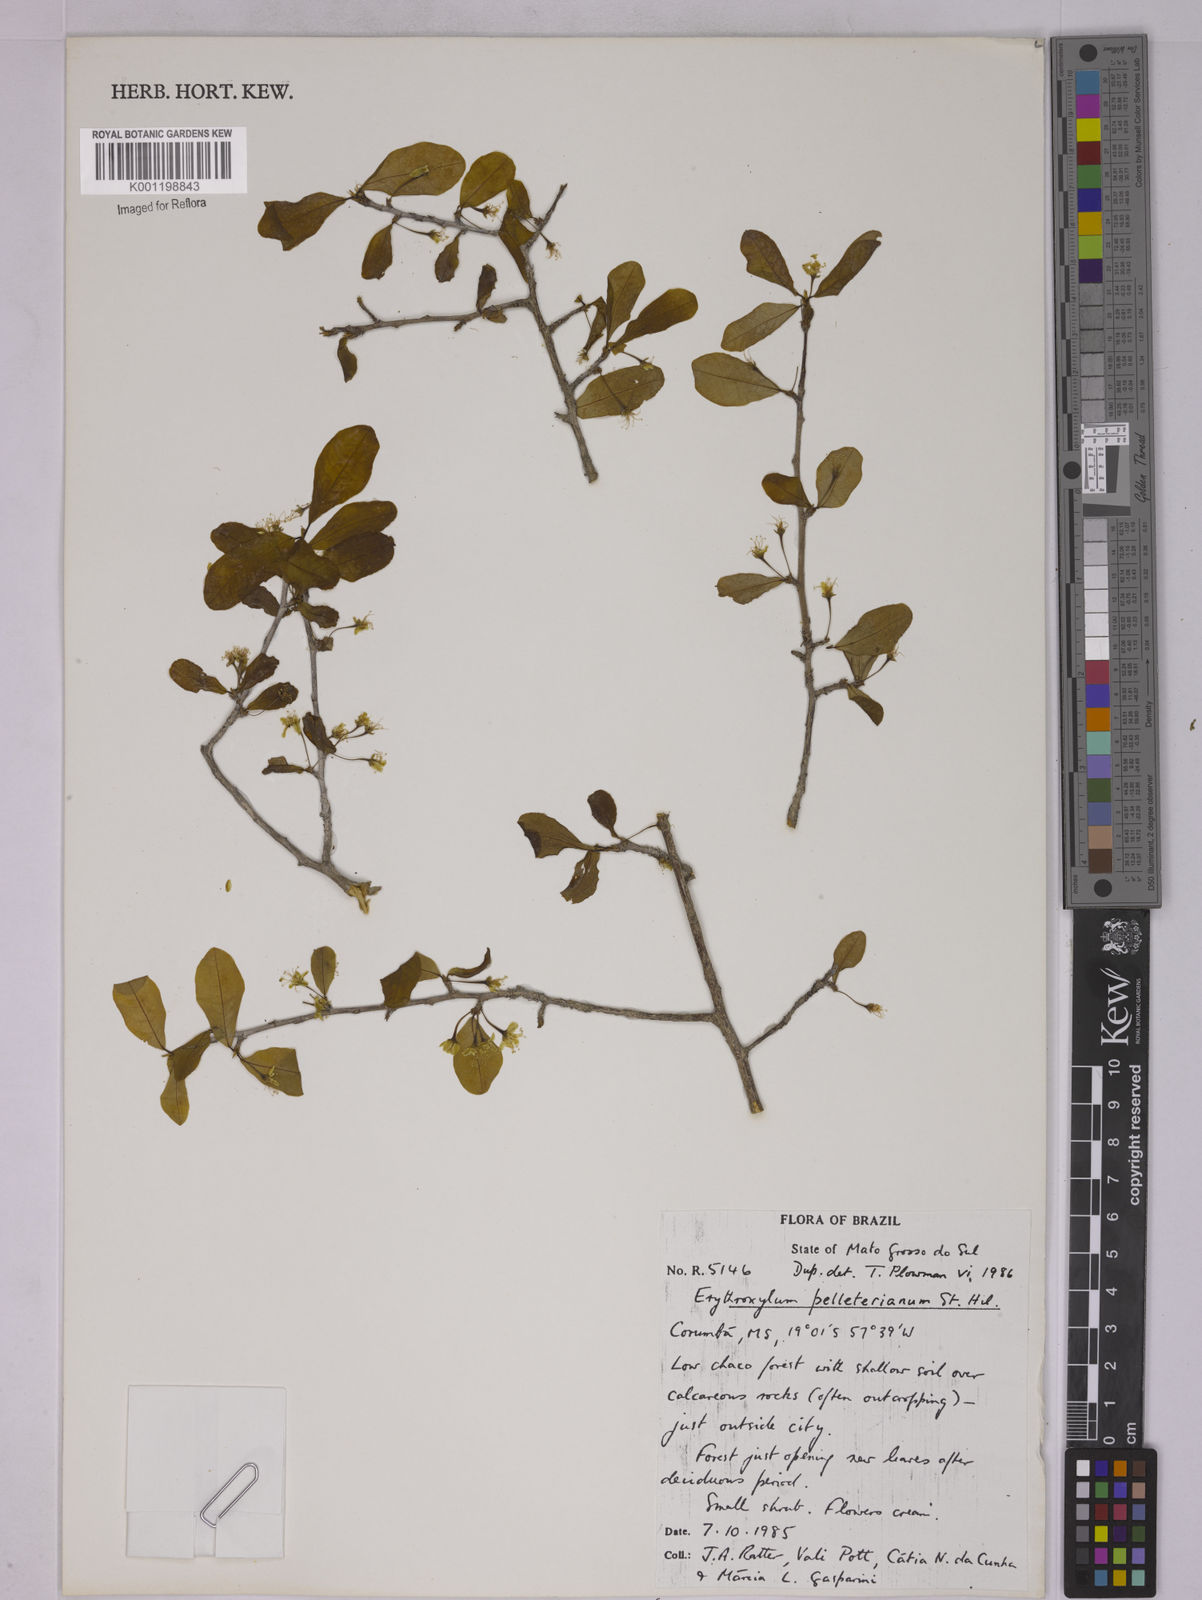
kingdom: Plantae
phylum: Tracheophyta
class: Magnoliopsida
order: Malpighiales
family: Erythroxylaceae
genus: Erythroxylum
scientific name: Erythroxylum pelleterianum
